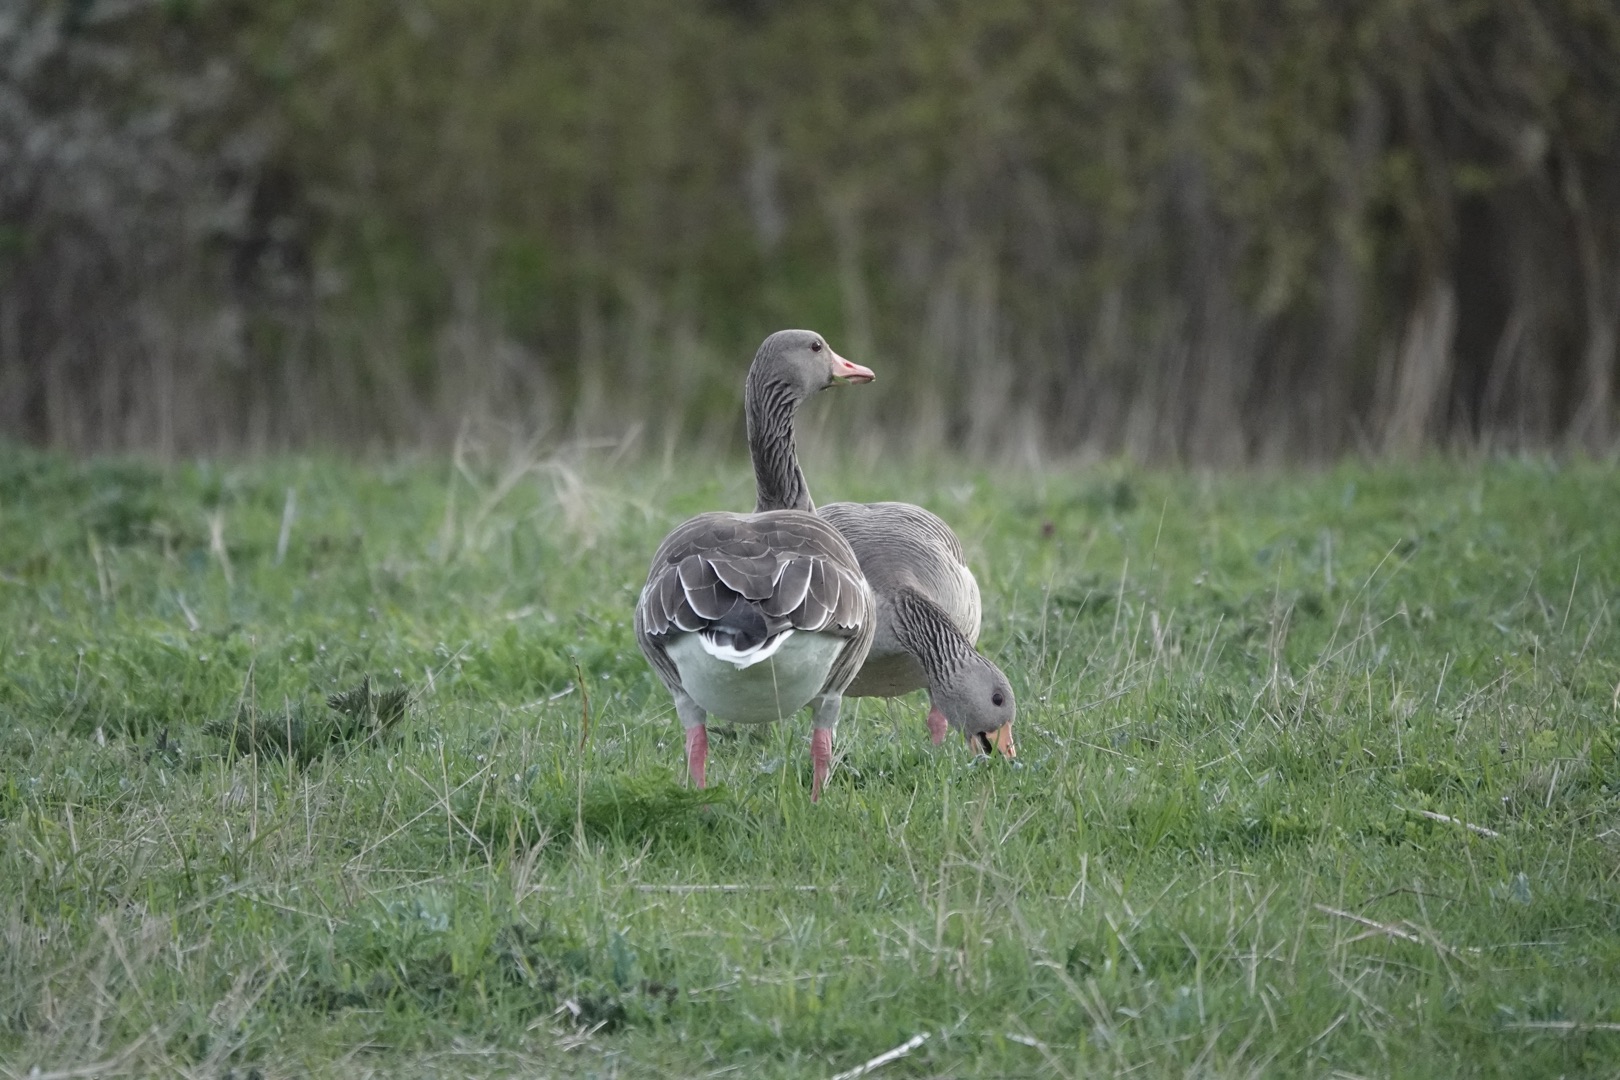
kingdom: Animalia
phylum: Chordata
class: Aves
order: Anseriformes
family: Anatidae
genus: Anser
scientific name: Anser anser
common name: Grågås
